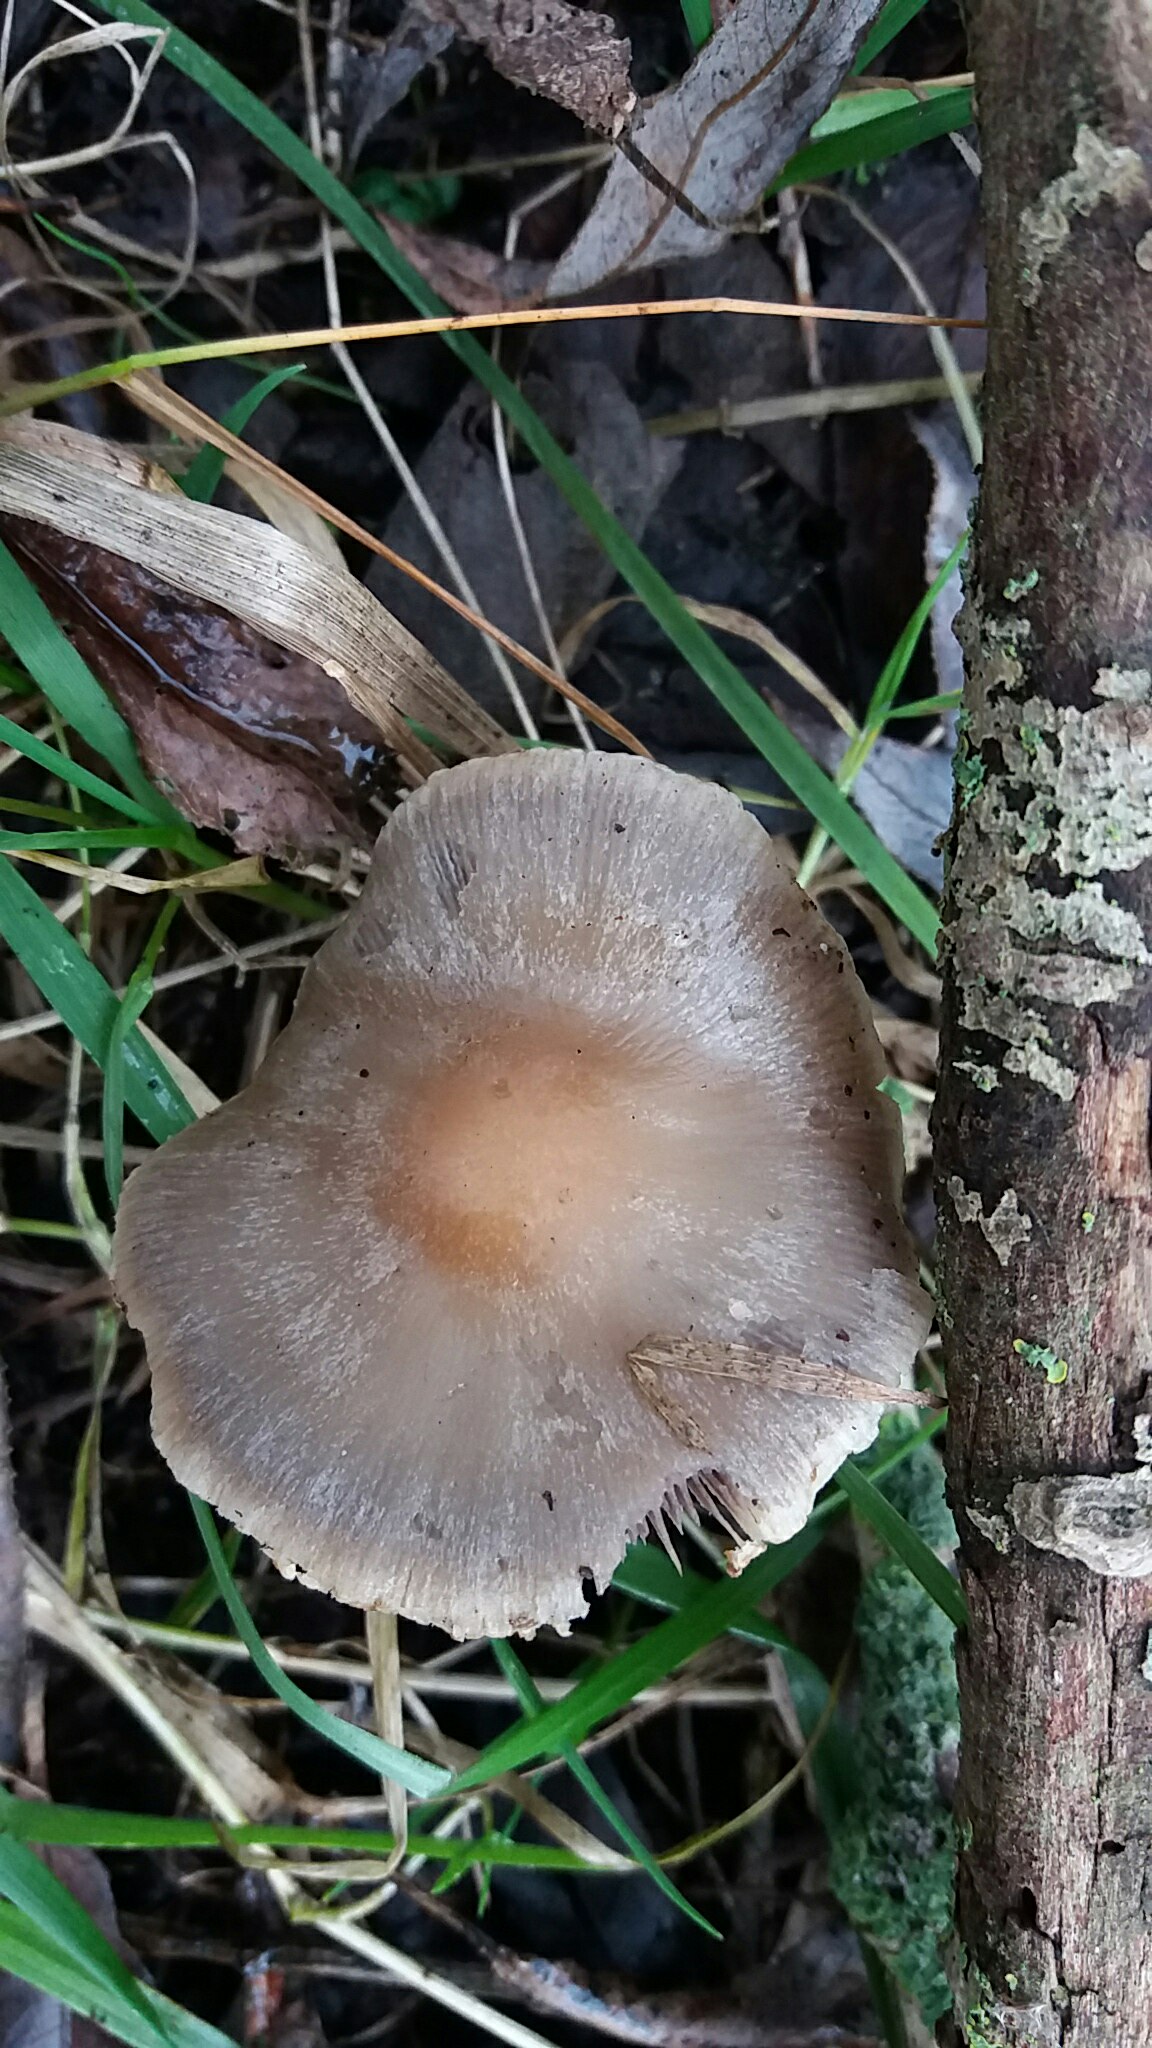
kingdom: Fungi
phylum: Basidiomycota
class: Agaricomycetes
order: Agaricales
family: Psathyrellaceae
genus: Psathyrella
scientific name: Psathyrella spadiceogrisea
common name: gråbrun mørkhat
